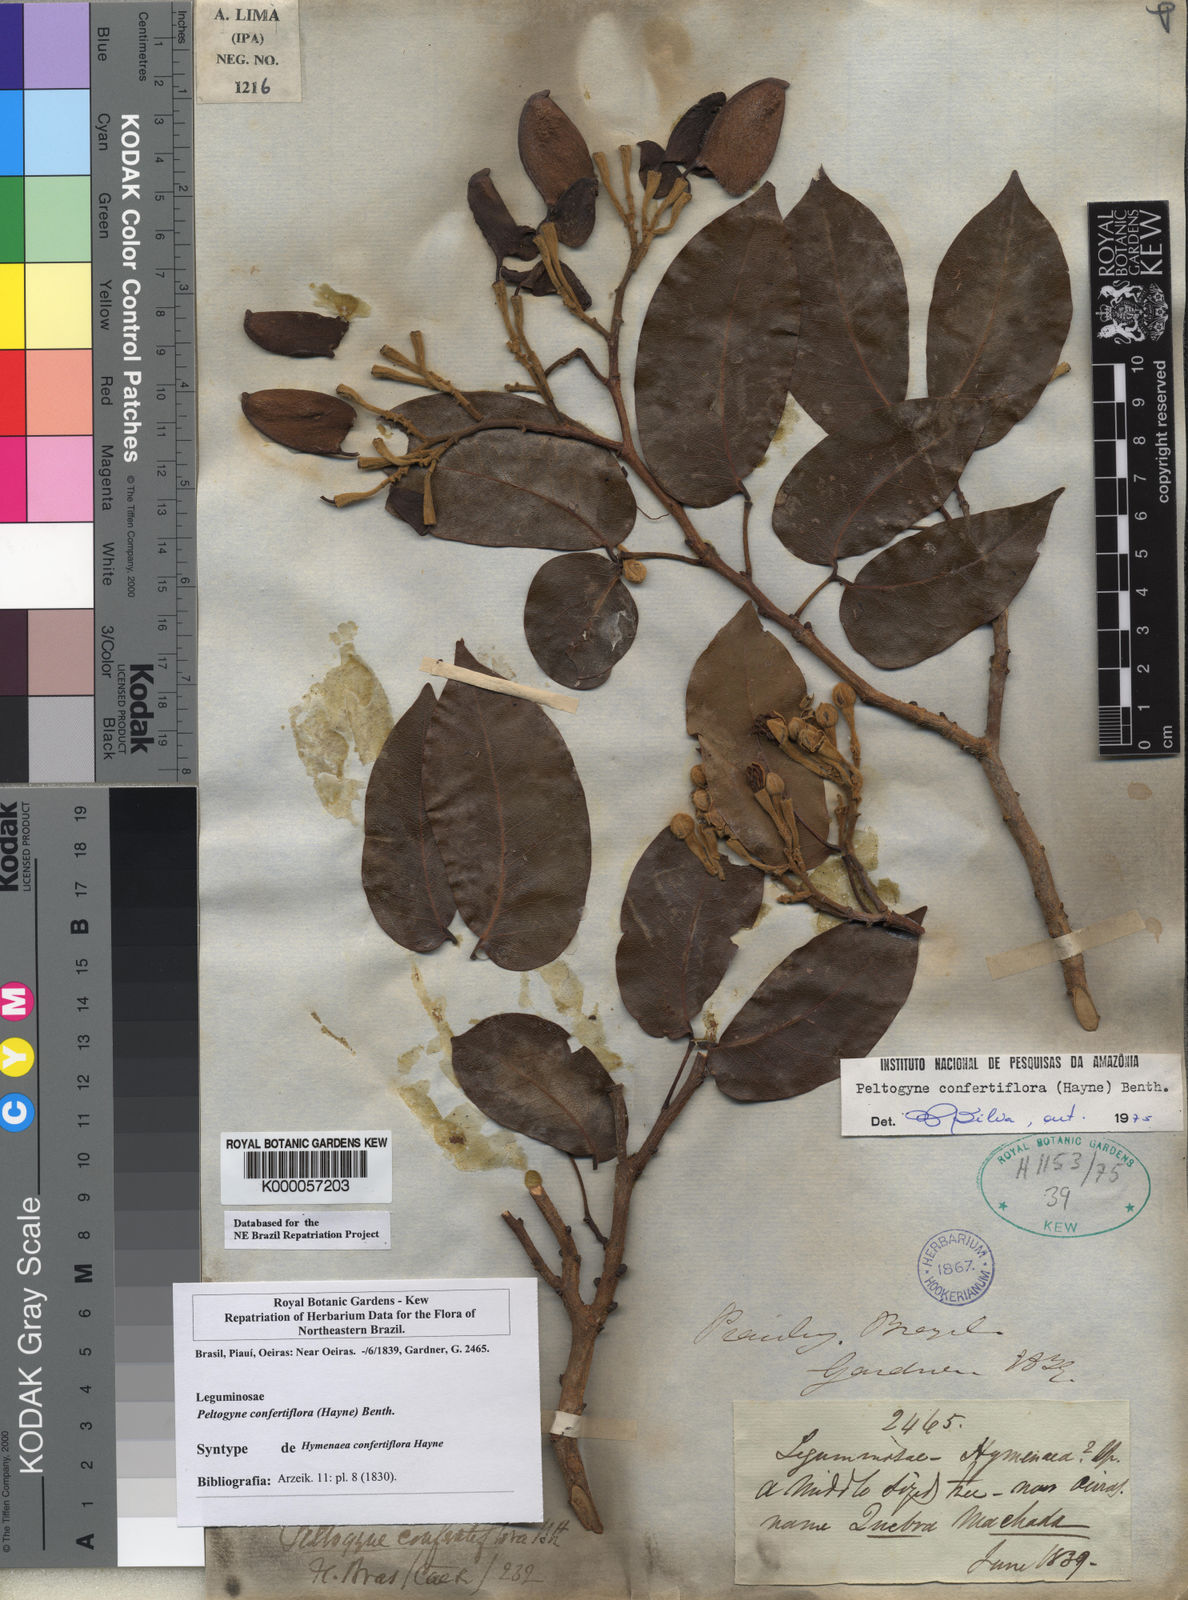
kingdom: Plantae
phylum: Tracheophyta
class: Magnoliopsida
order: Fabales
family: Fabaceae
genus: Peltogyne
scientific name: Peltogyne confertiflora
